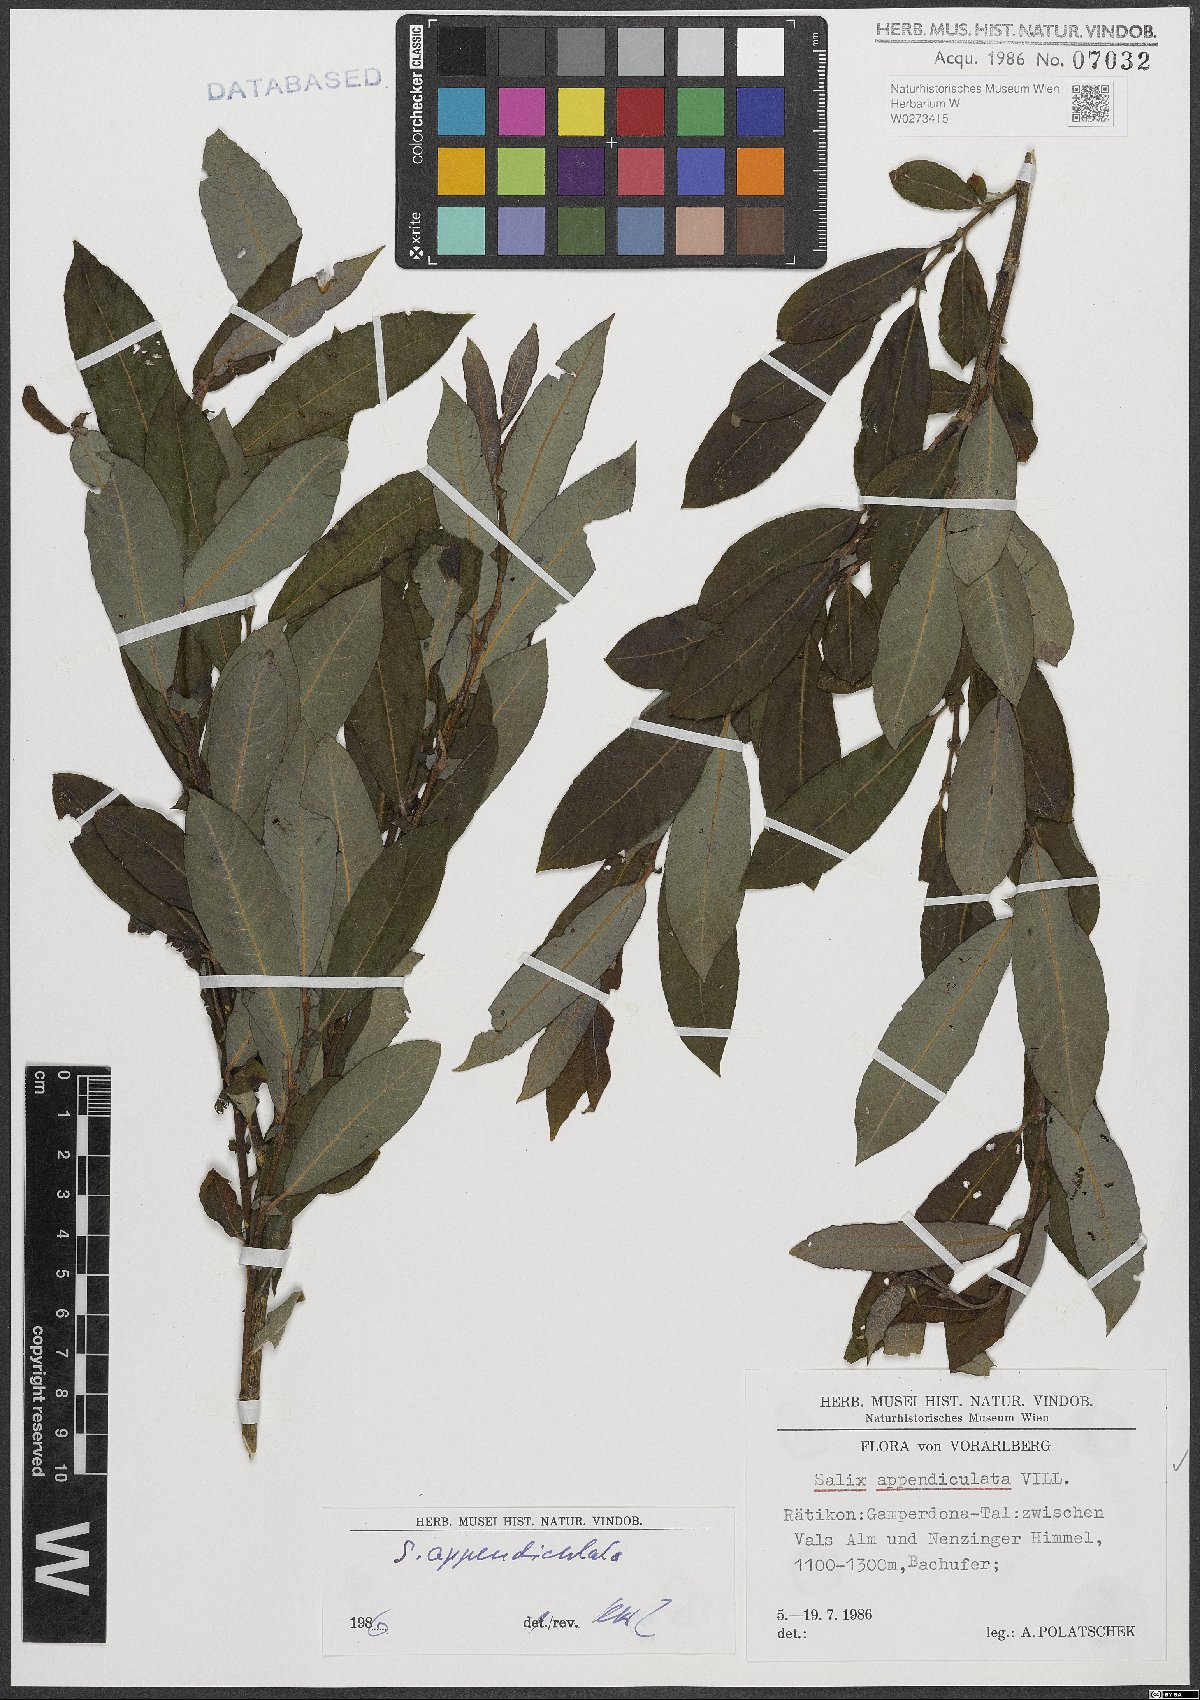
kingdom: Plantae
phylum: Tracheophyta
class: Magnoliopsida
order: Malpighiales
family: Salicaceae
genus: Salix
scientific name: Salix appendiculata
